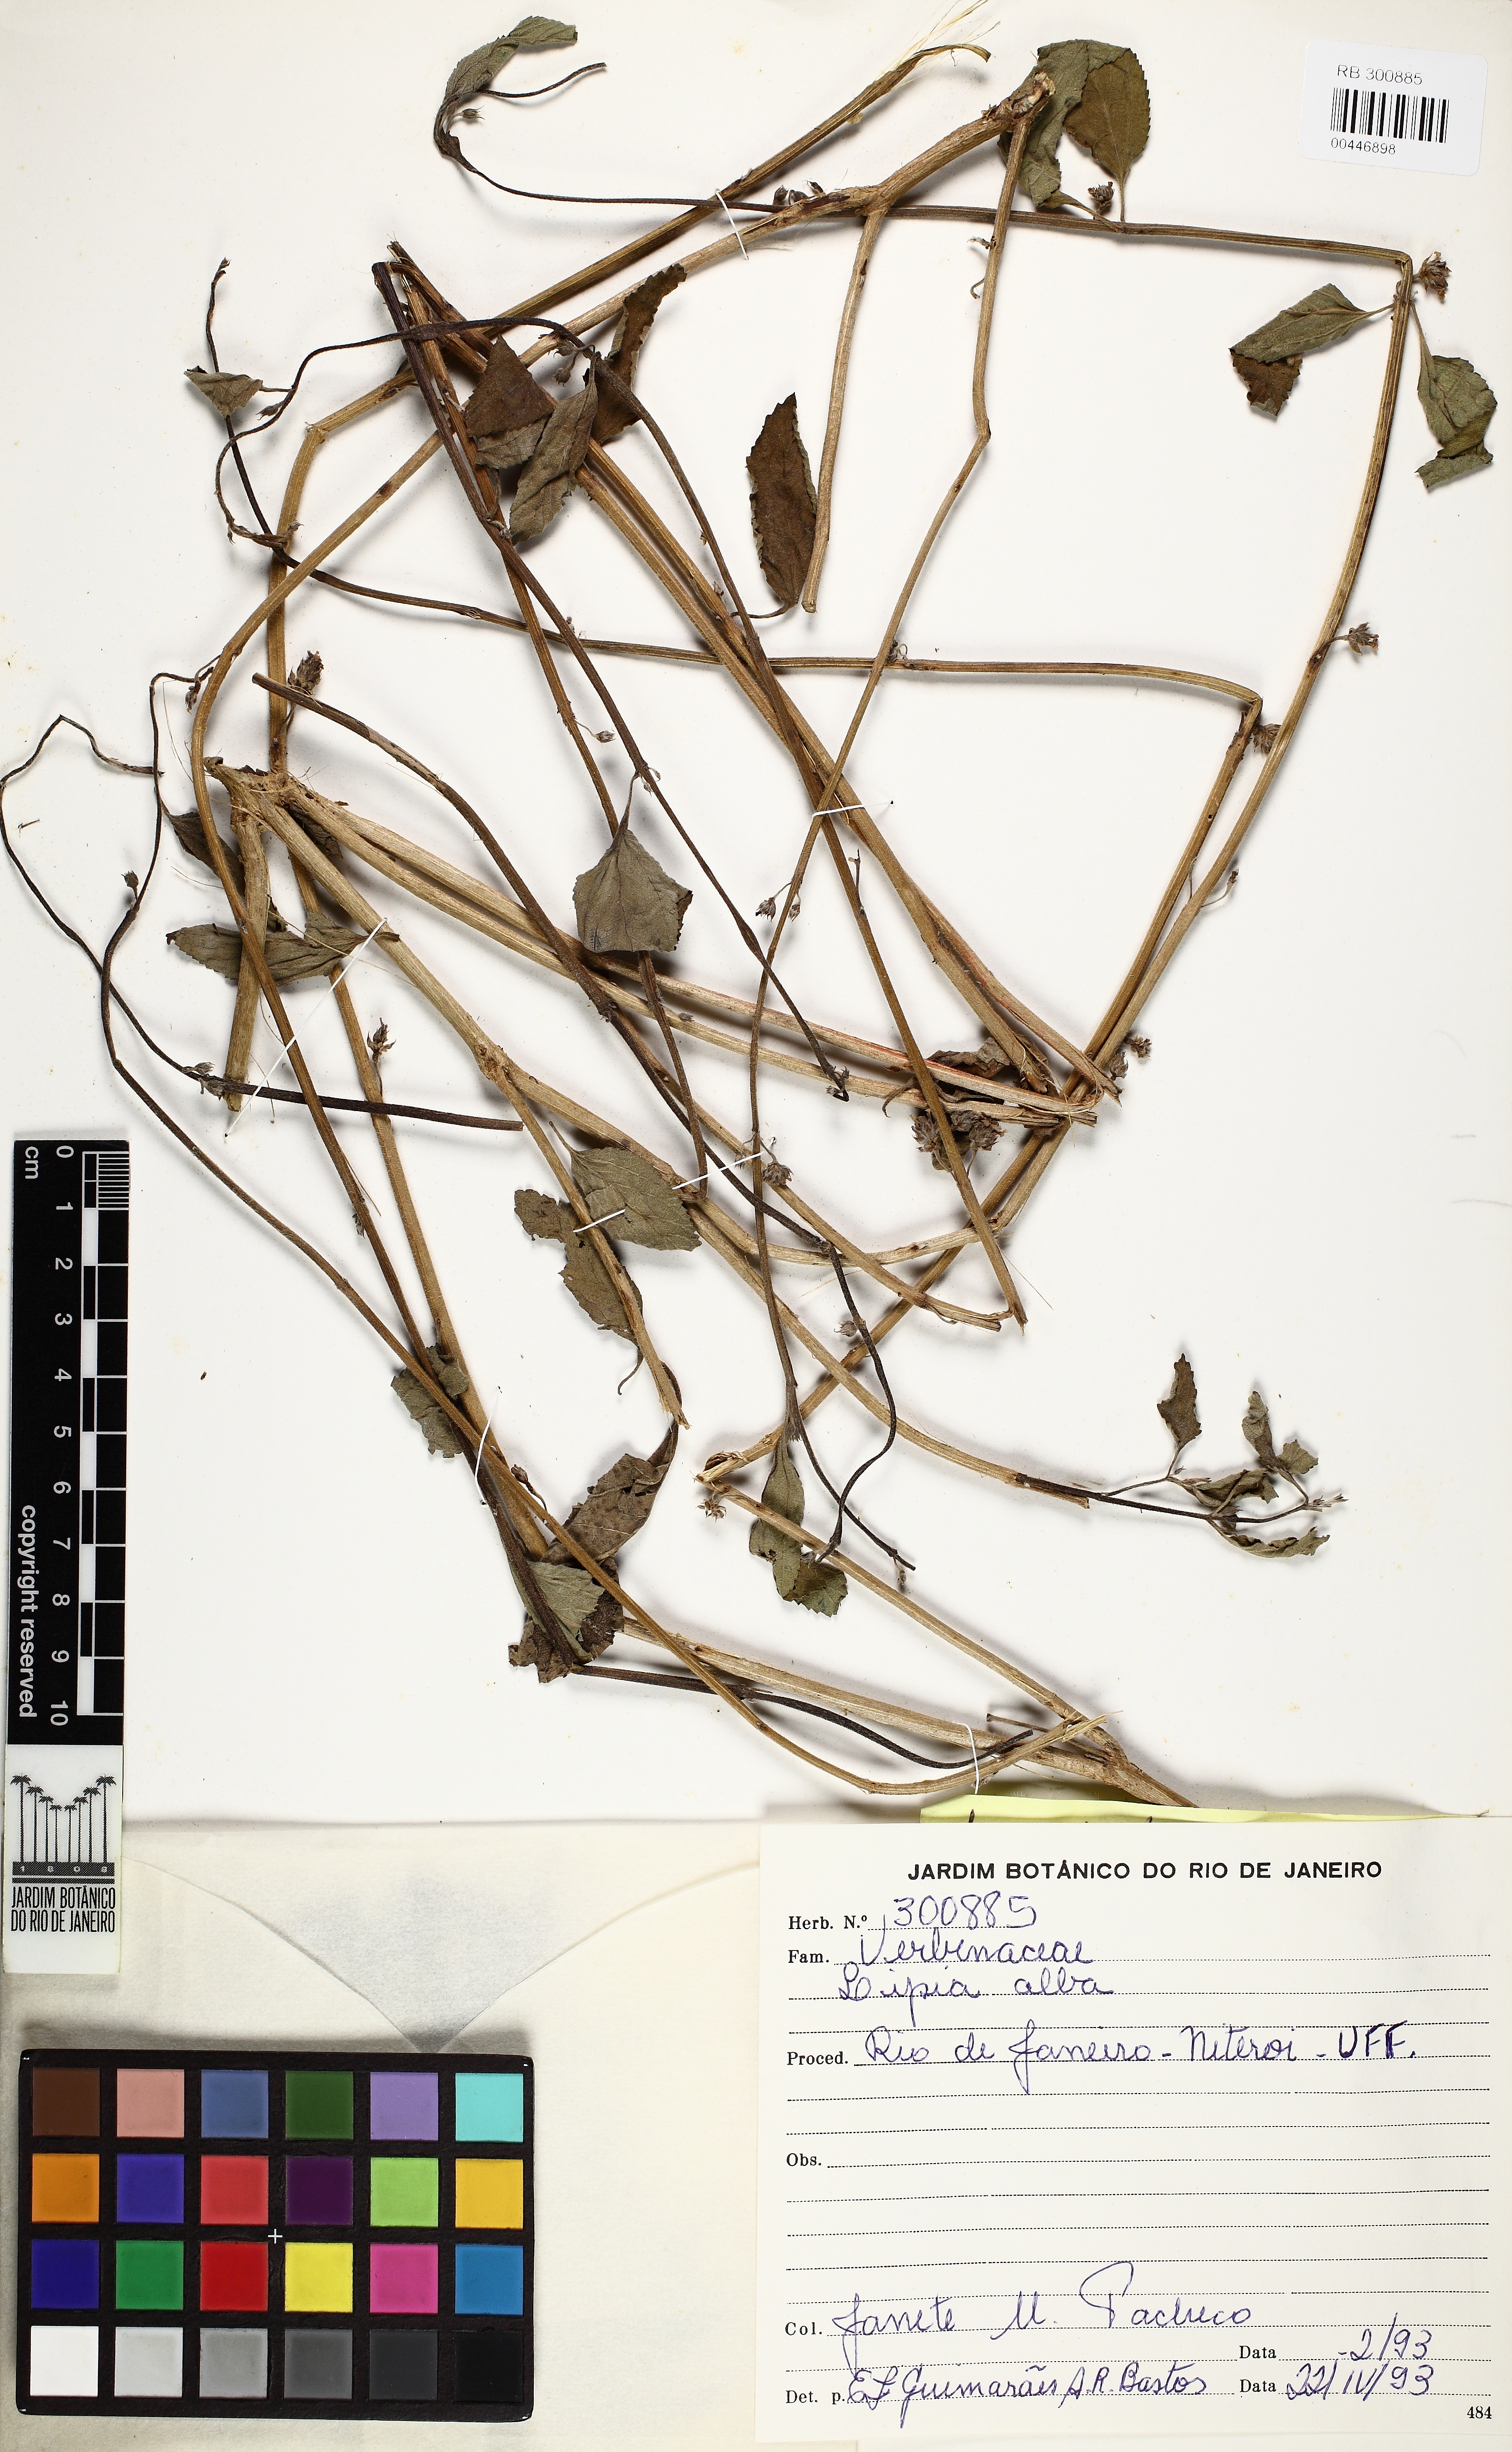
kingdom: Plantae
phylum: Tracheophyta
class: Magnoliopsida
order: Lamiales
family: Verbenaceae
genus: Lippia
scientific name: Lippia alba
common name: Bushy matgrass
